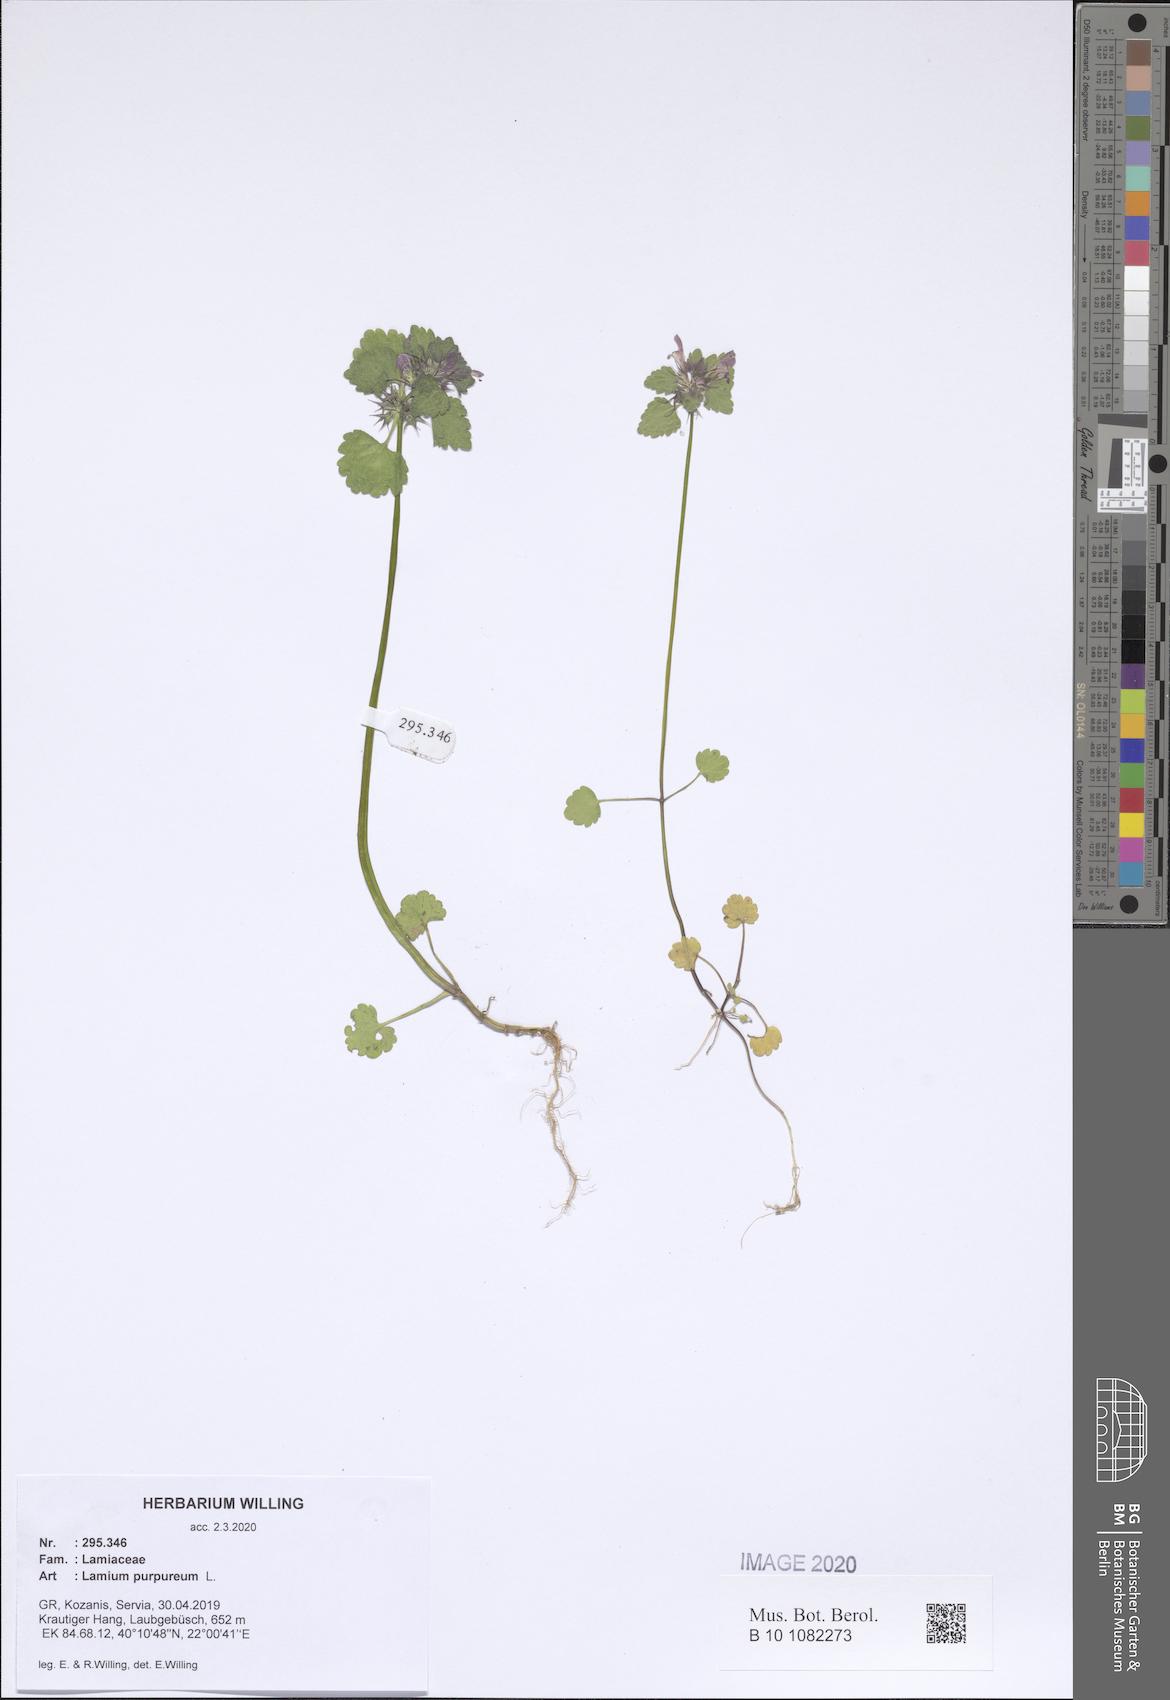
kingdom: Plantae
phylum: Tracheophyta
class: Magnoliopsida
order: Lamiales
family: Lamiaceae
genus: Lamium
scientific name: Lamium purpureum
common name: Red dead-nettle
